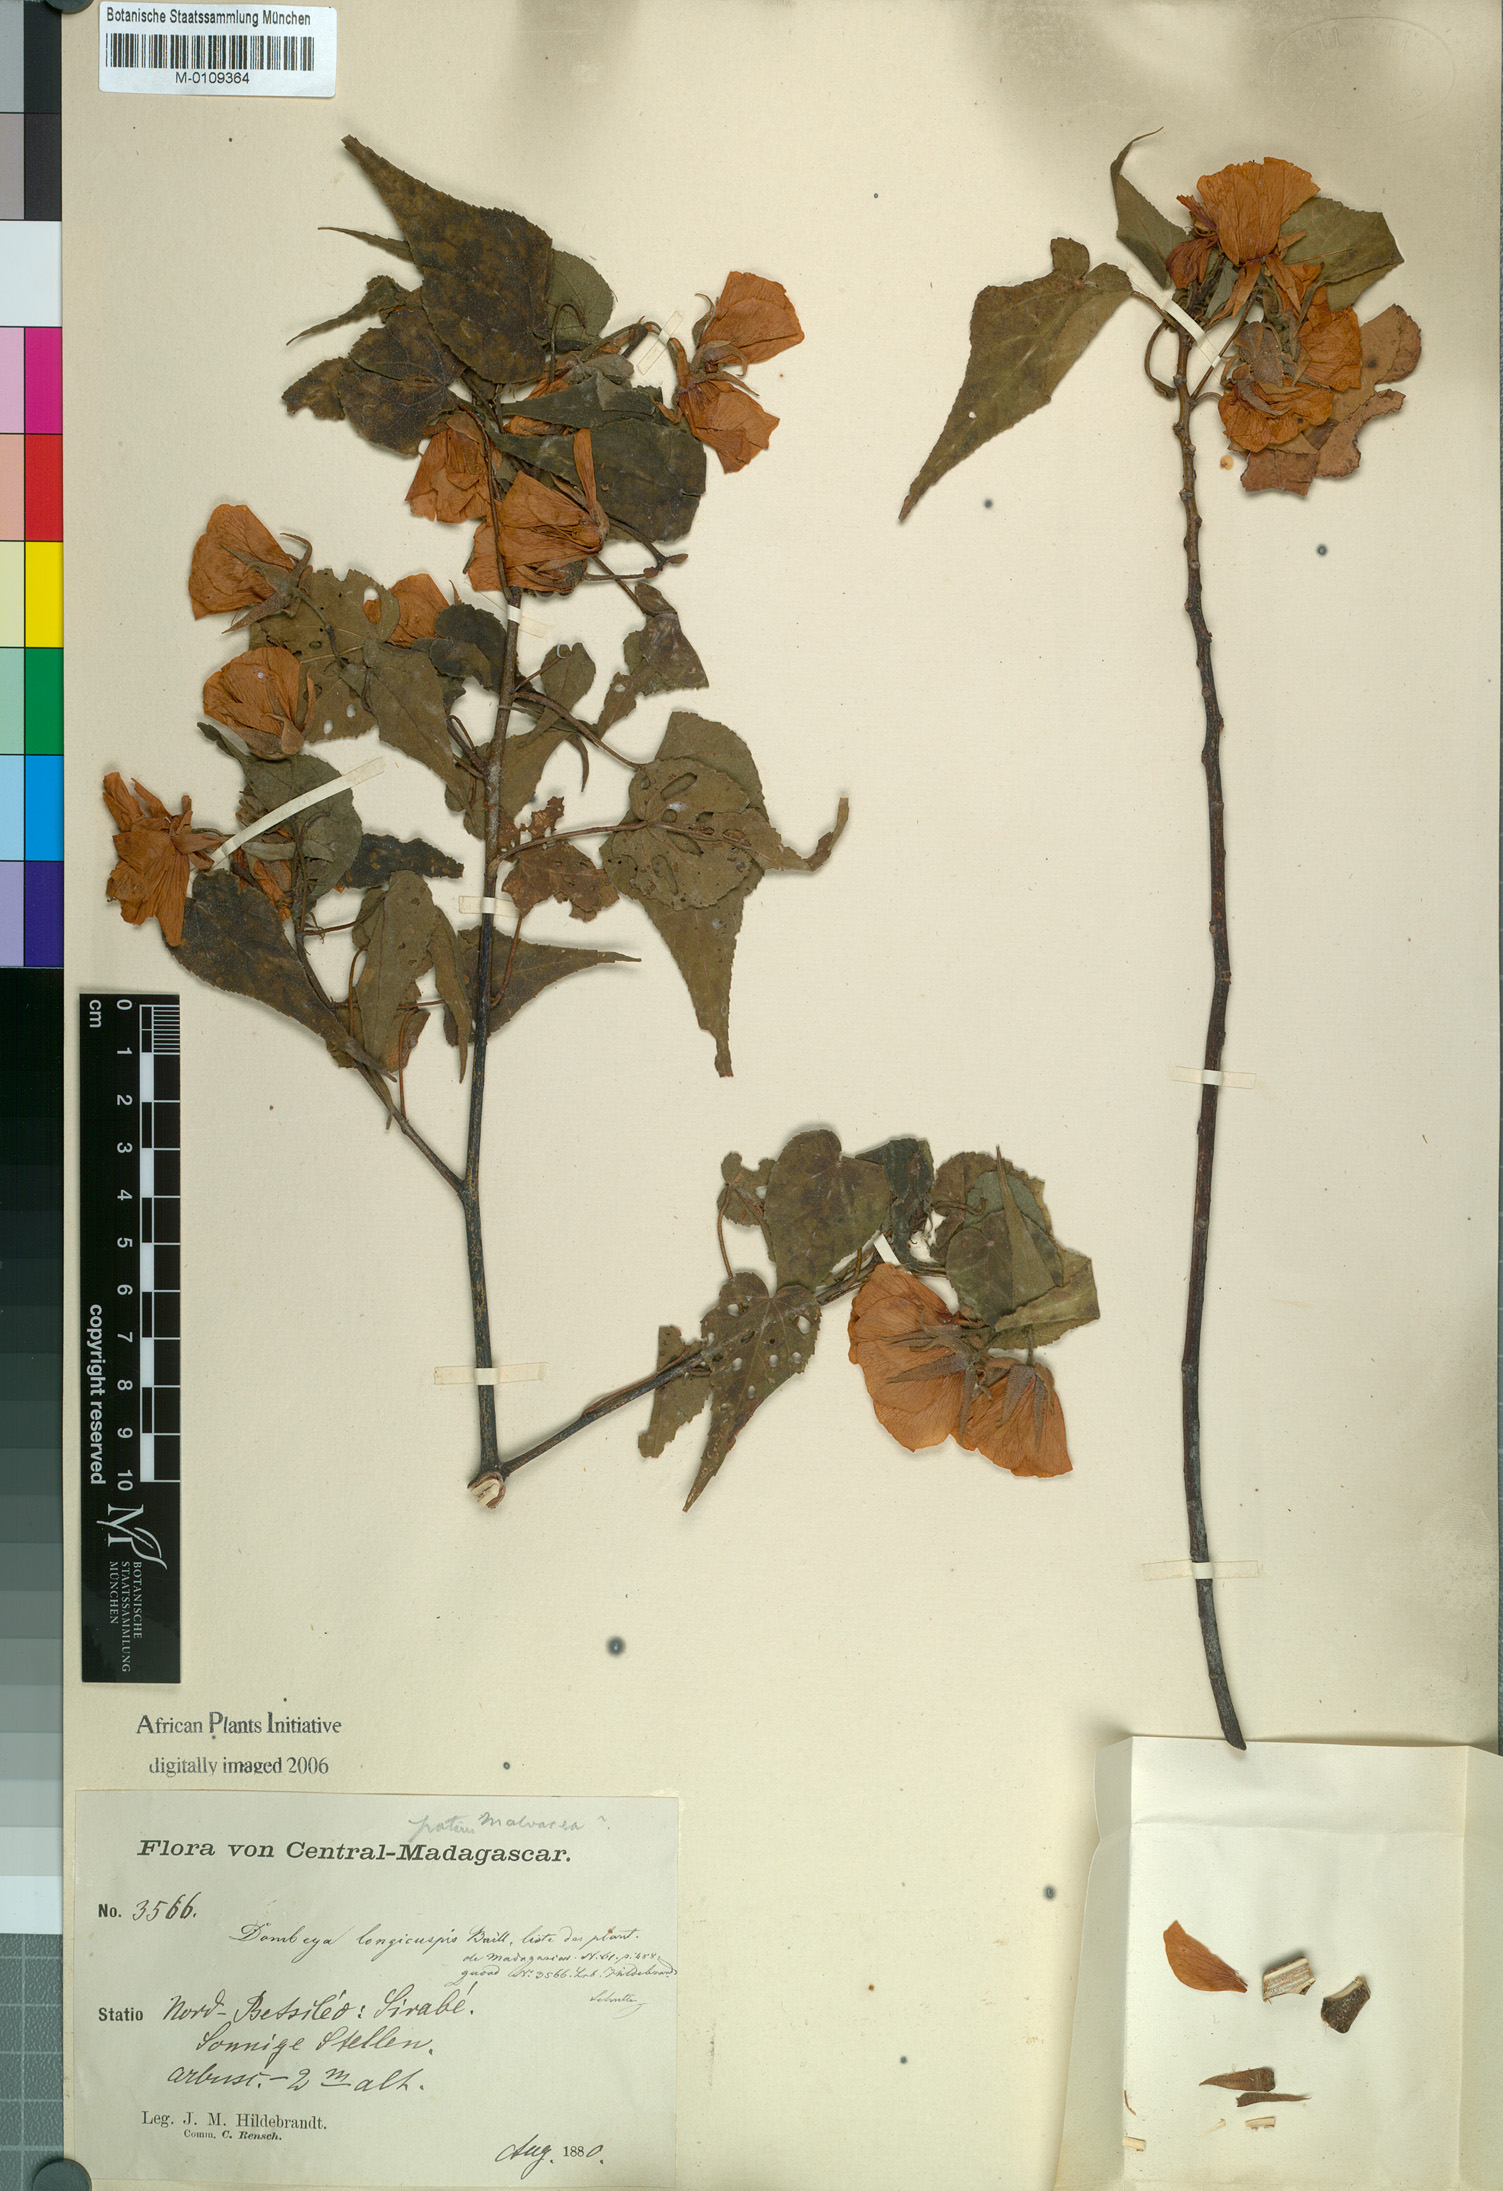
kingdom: Plantae
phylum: Tracheophyta
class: Magnoliopsida
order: Malvales
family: Malvaceae
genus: Dombeya
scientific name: Dombeya longicuspis
